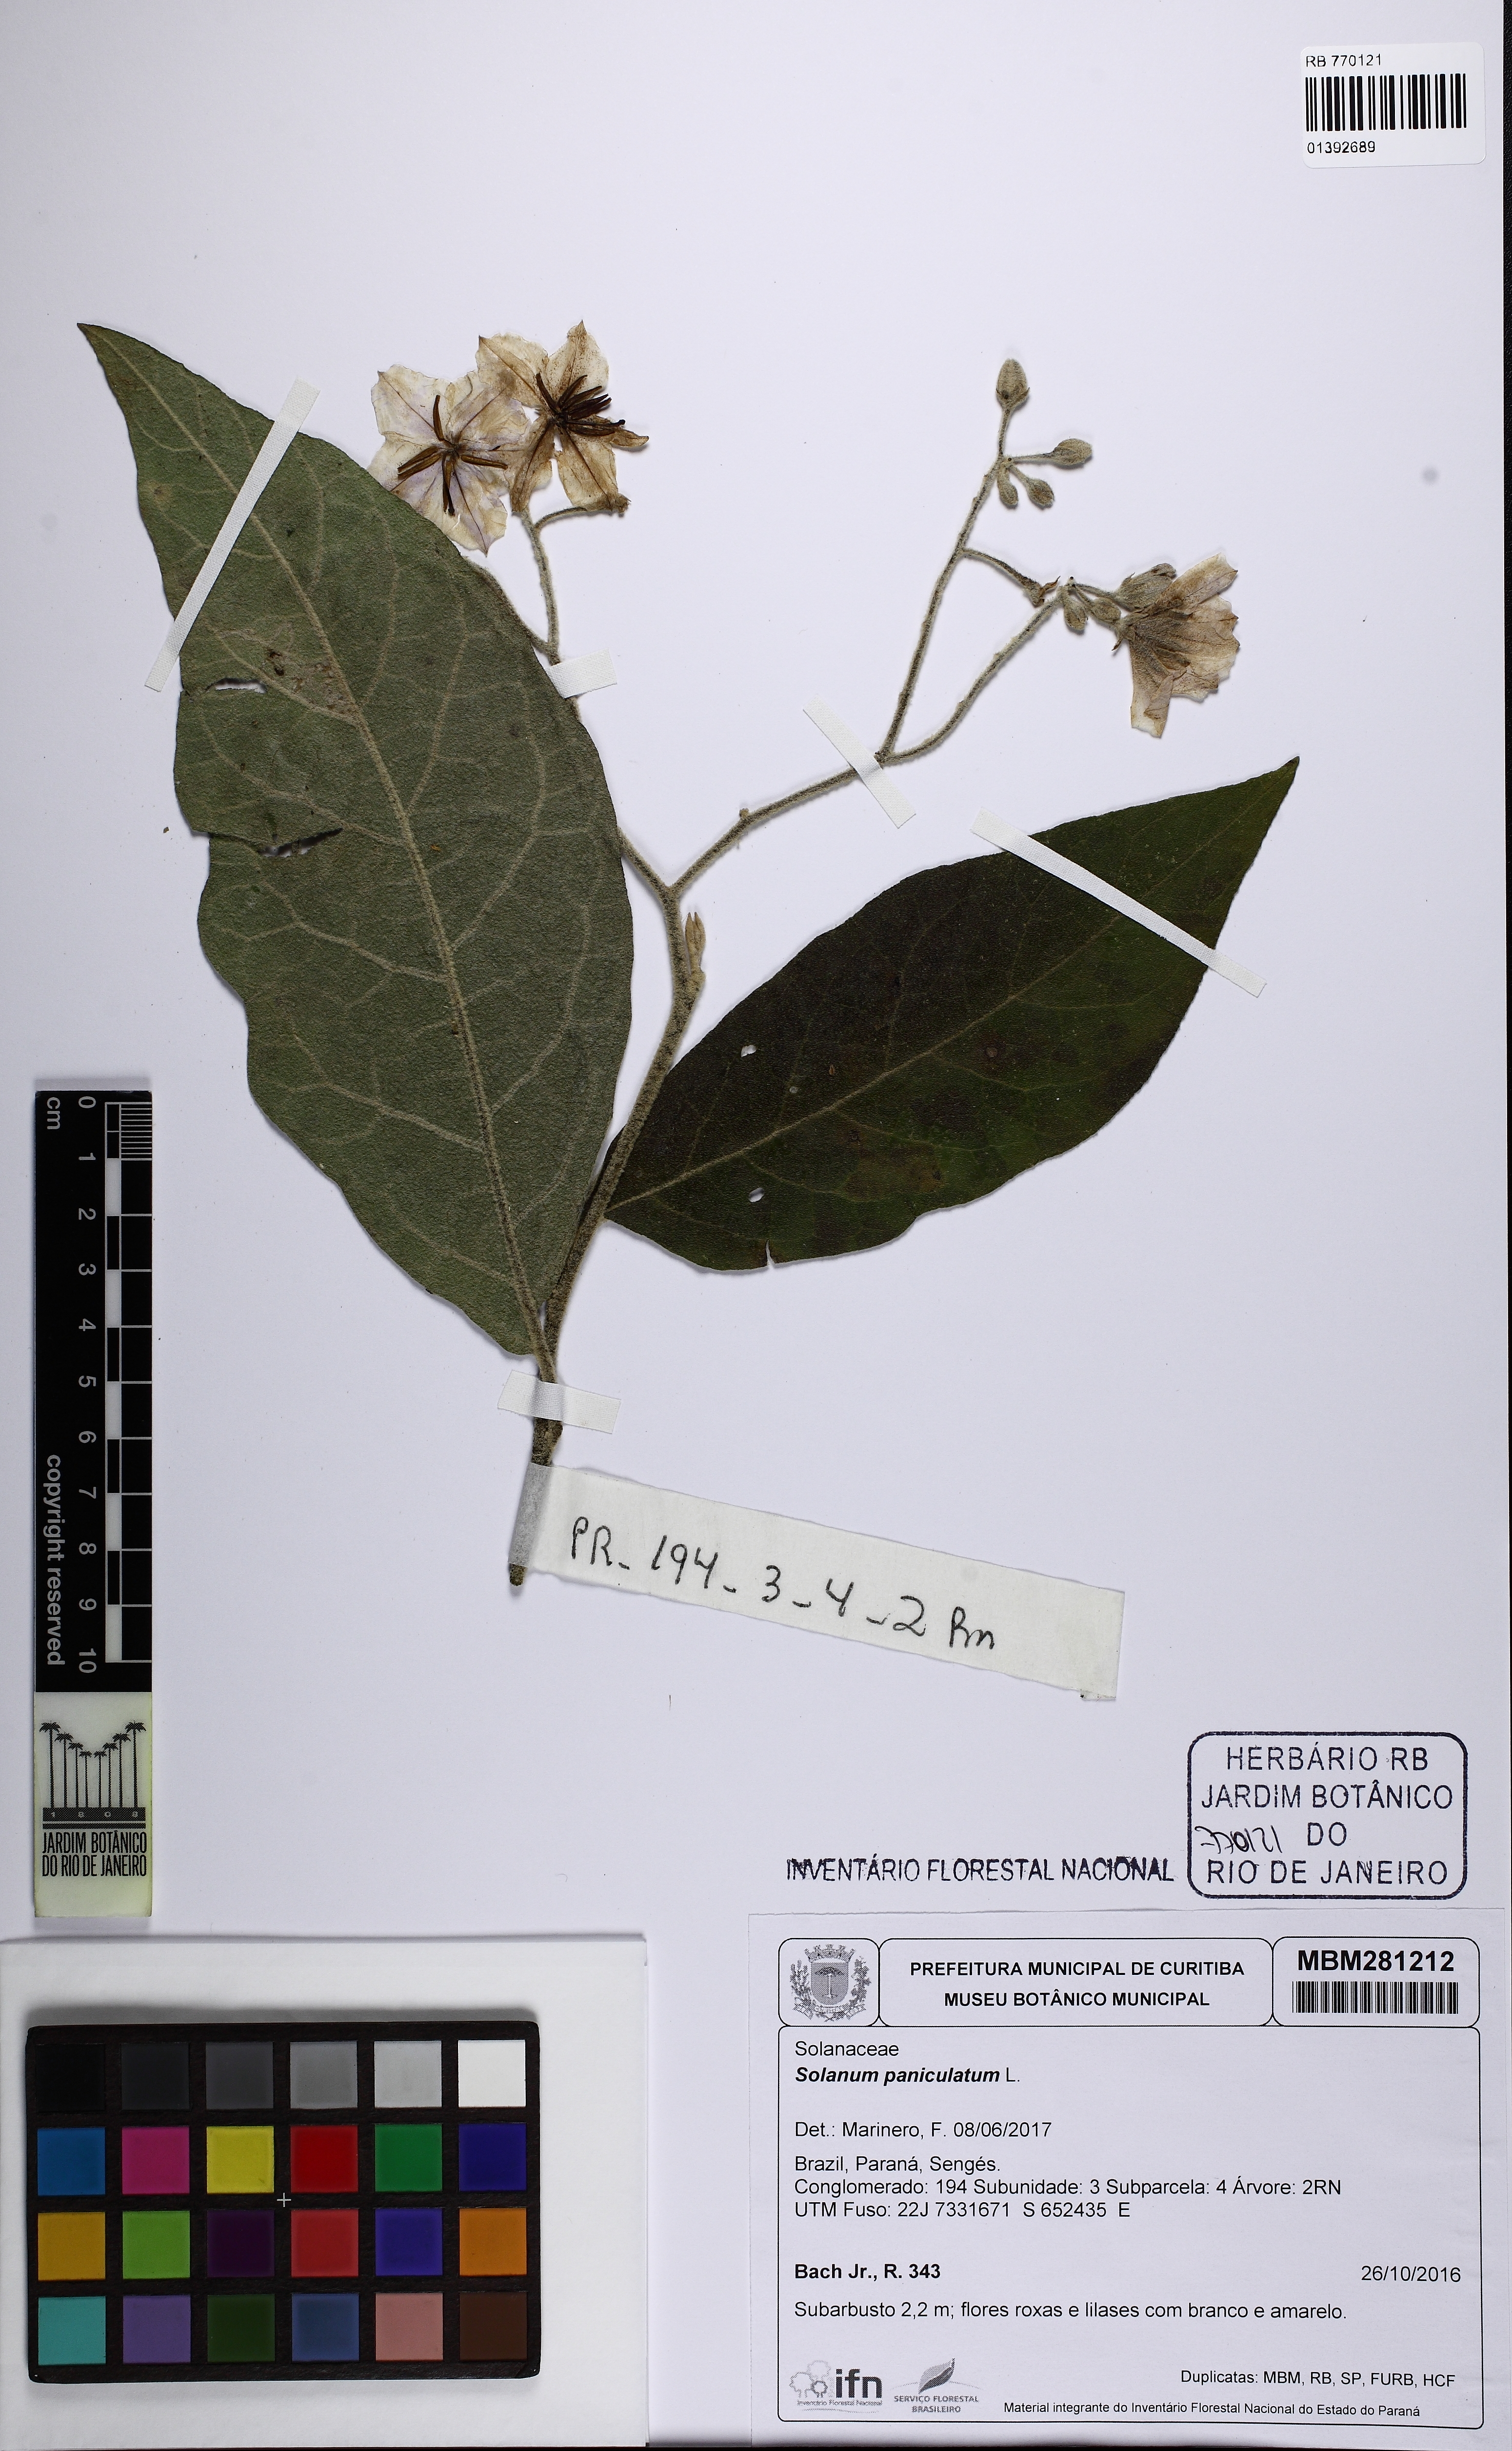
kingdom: Plantae
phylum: Tracheophyta
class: Magnoliopsida
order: Solanales
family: Solanaceae
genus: Solanum
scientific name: Solanum paniculatum
